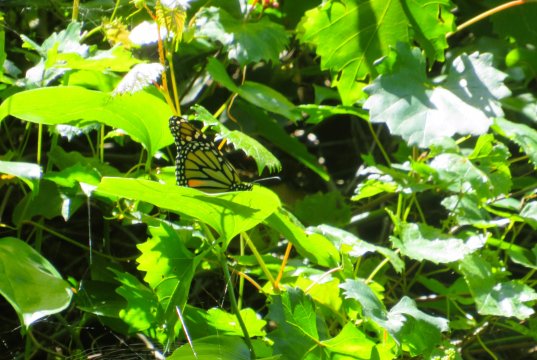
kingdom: Animalia
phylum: Arthropoda
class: Insecta
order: Lepidoptera
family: Nymphalidae
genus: Danaus
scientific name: Danaus plexippus
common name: Monarch
